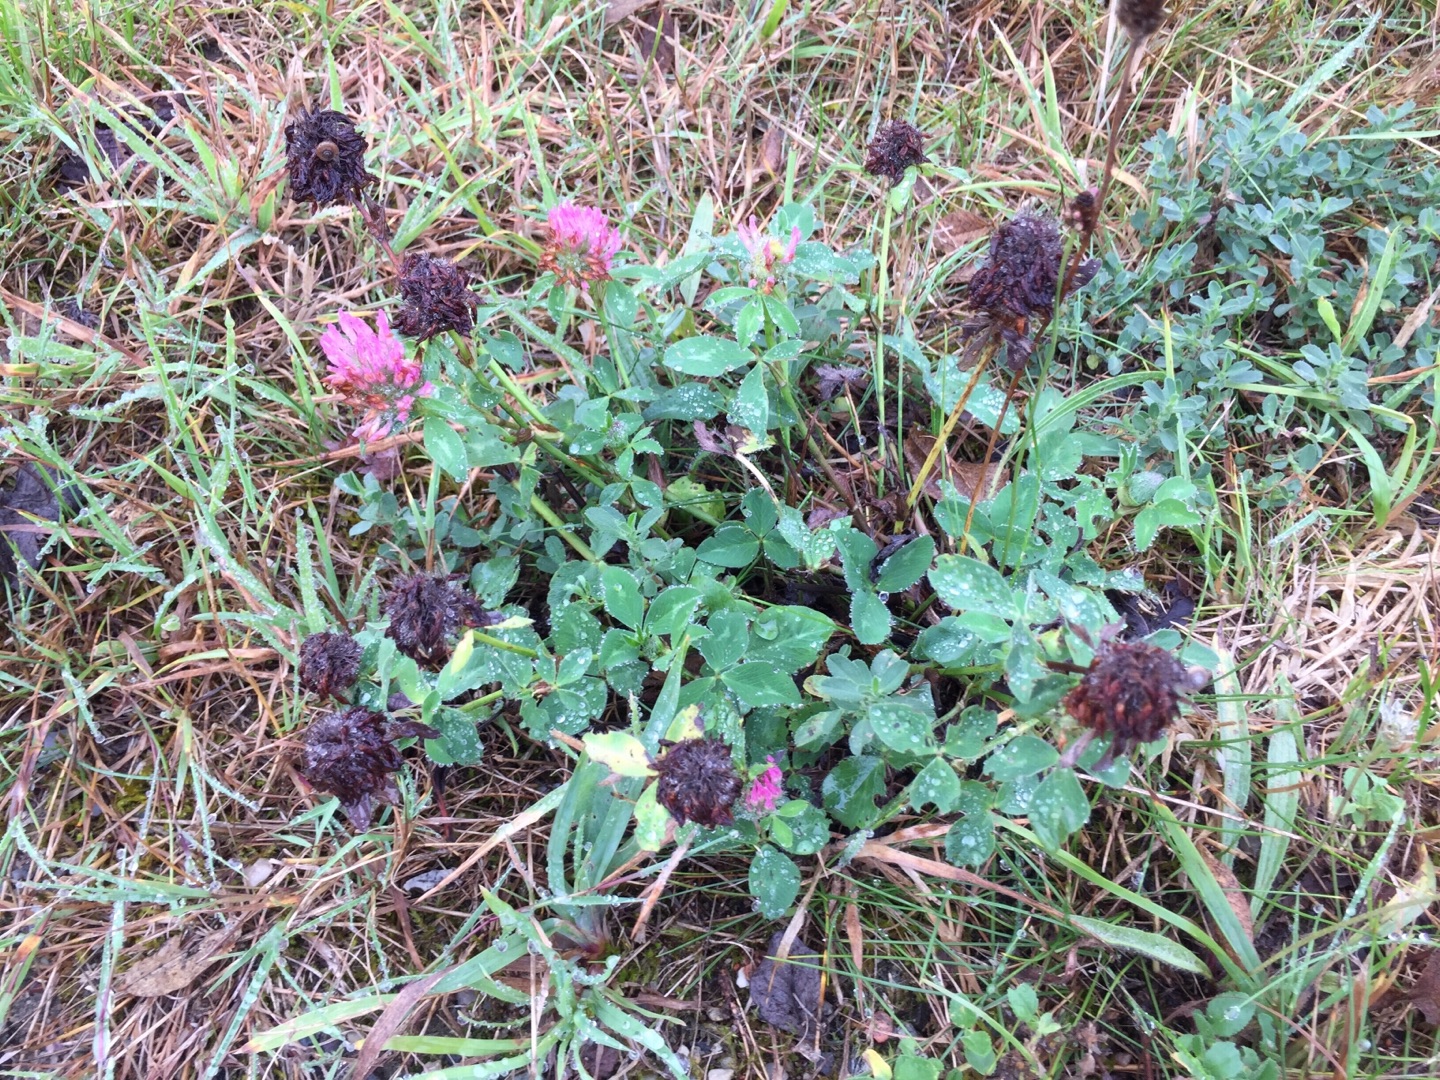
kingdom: Plantae
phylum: Tracheophyta
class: Magnoliopsida
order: Fabales
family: Fabaceae
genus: Trifolium
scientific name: Trifolium pratense
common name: Rød-kløver
